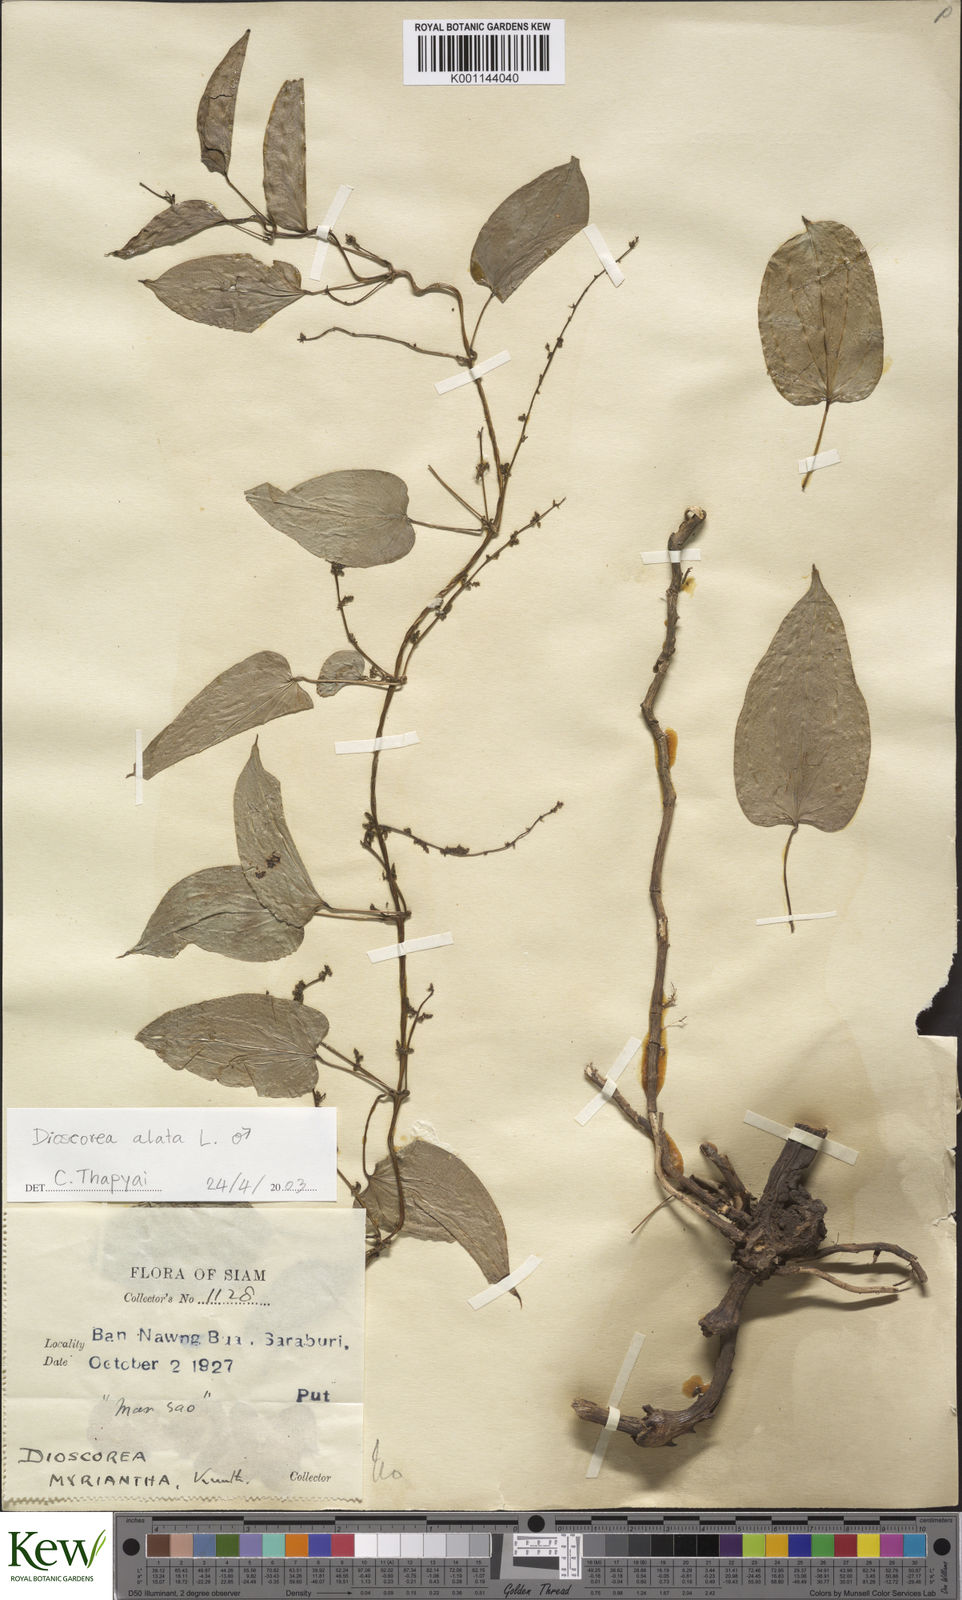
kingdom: Plantae
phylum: Tracheophyta
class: Liliopsida
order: Dioscoreales
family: Dioscoreaceae
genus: Dioscorea
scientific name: Dioscorea alata
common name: Water yam
